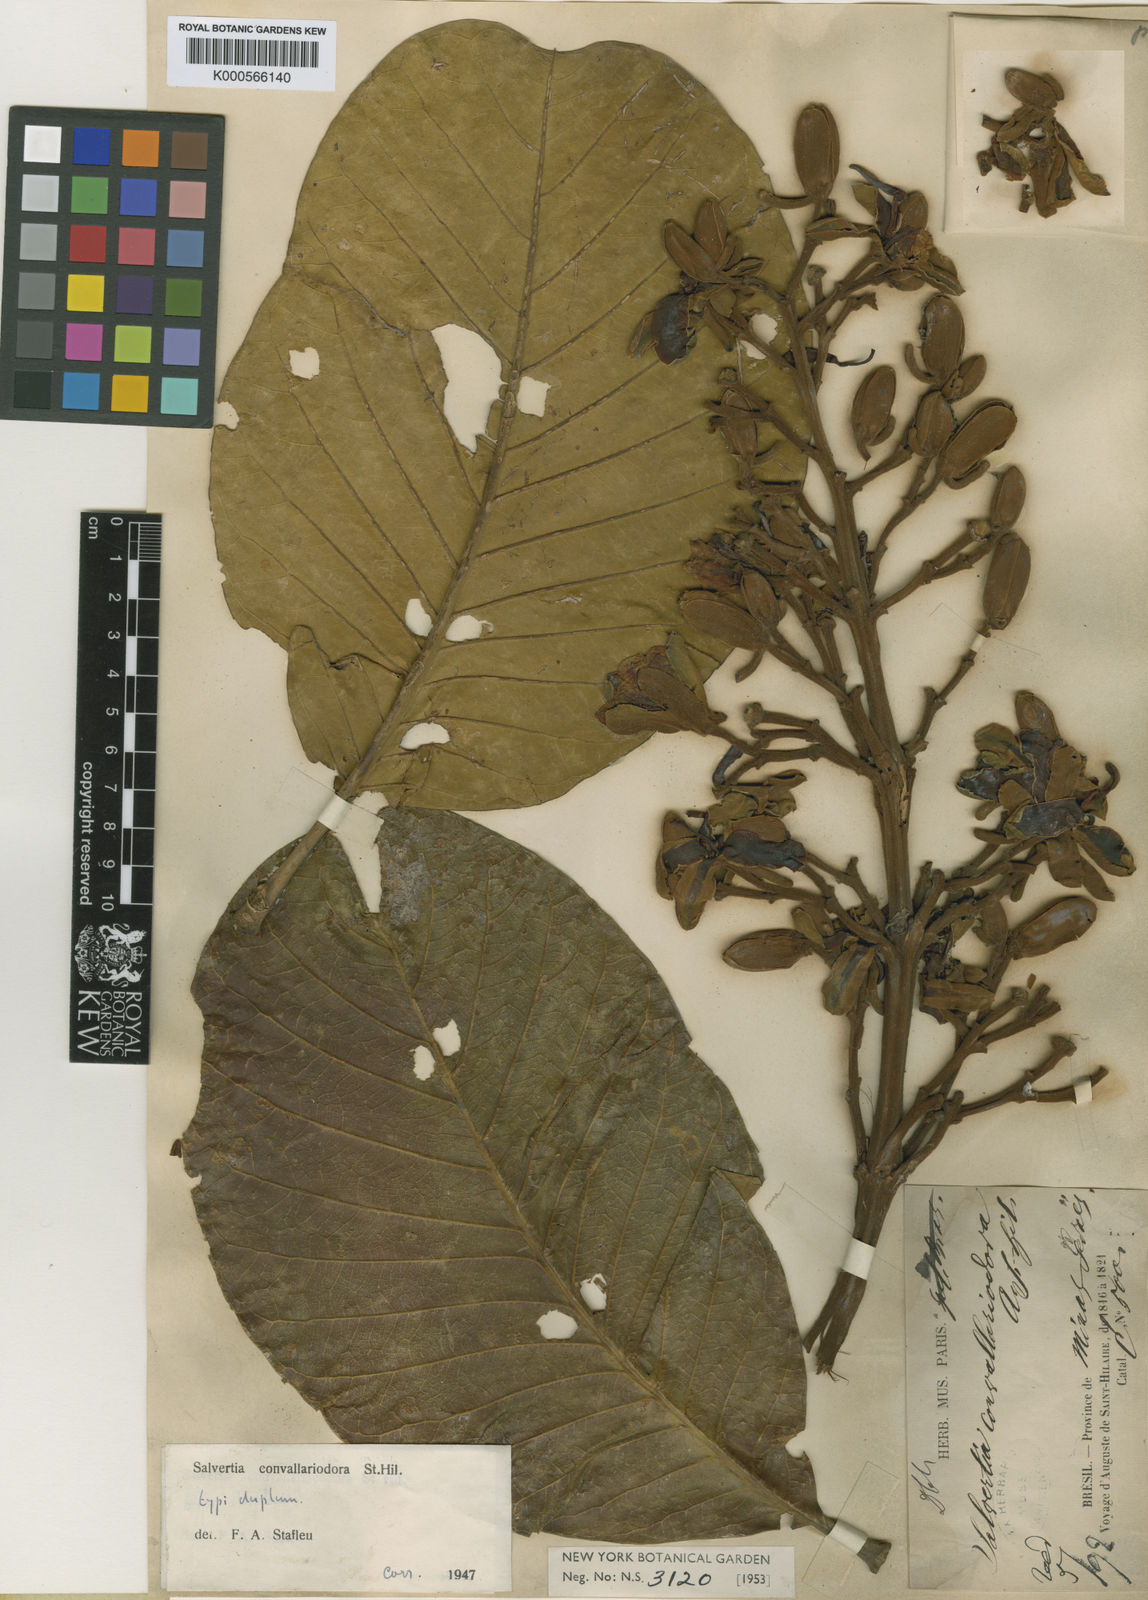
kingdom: Plantae
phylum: Tracheophyta
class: Magnoliopsida
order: Myrtales
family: Vochysiaceae
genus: Salvertia
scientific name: Salvertia
